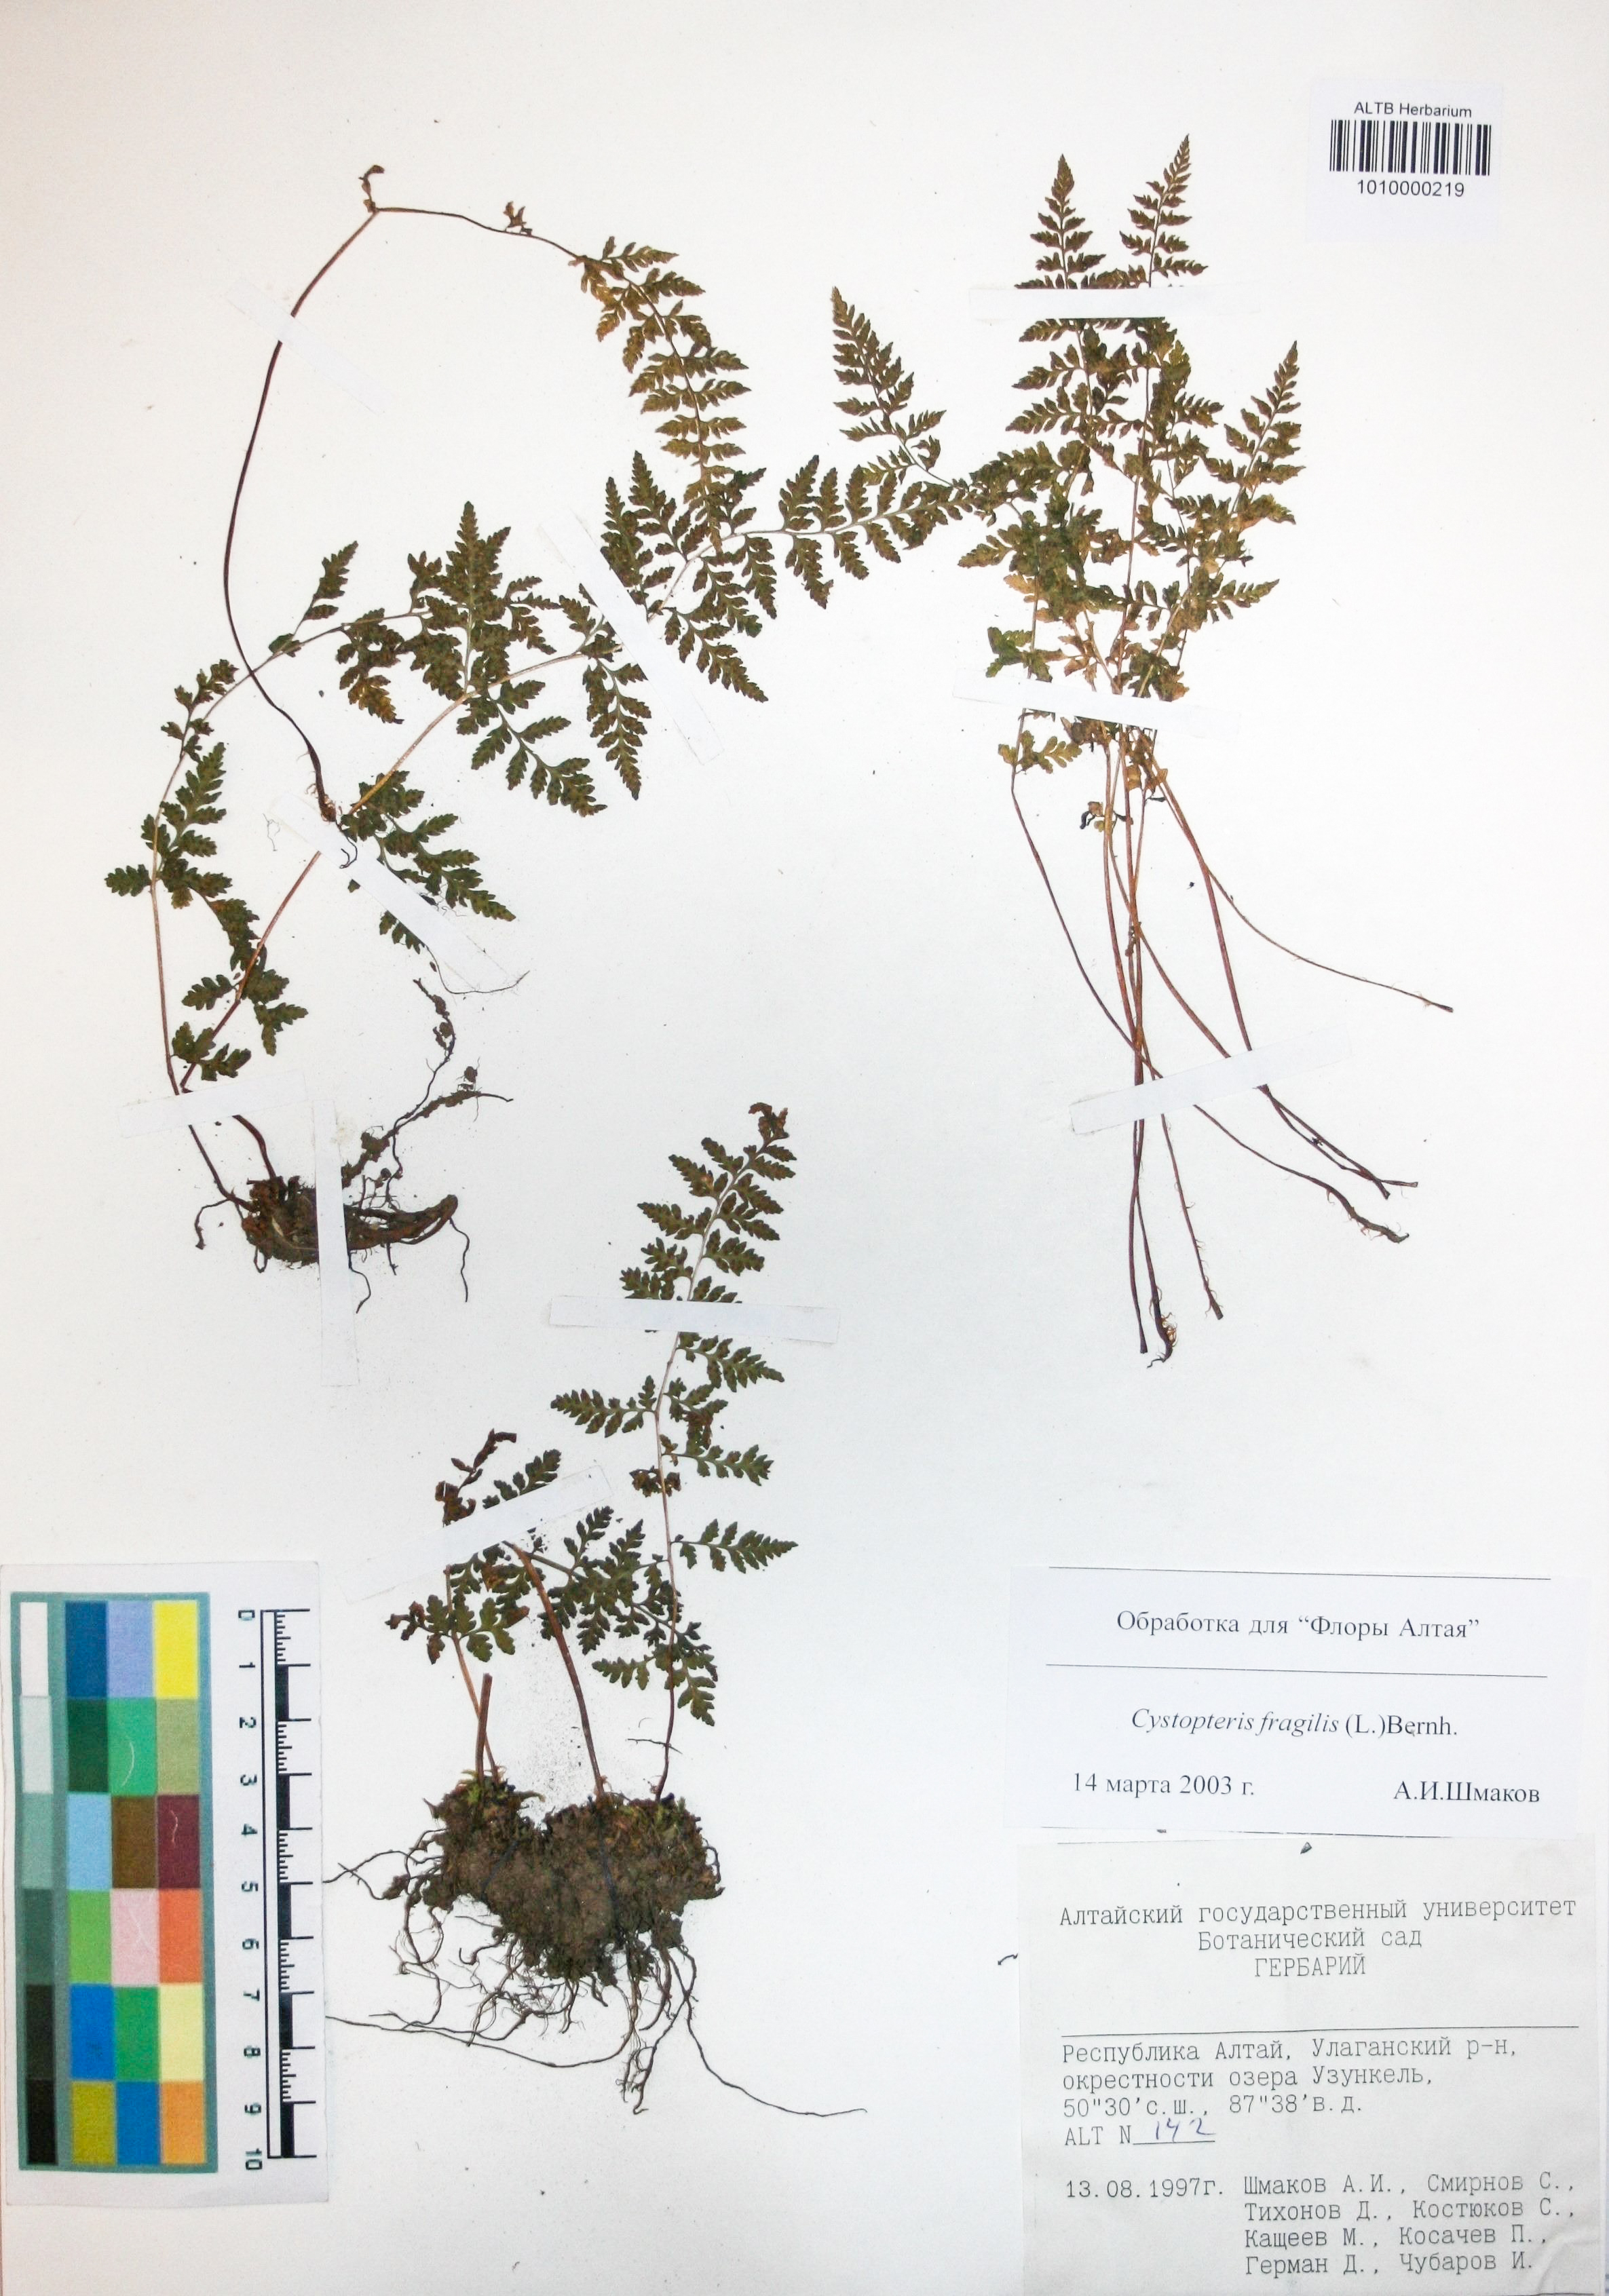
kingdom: Plantae
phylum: Tracheophyta
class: Polypodiopsida
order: Polypodiales
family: Cystopteridaceae
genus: Cystopteris
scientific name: Cystopteris fragilis
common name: Brittle bladder fern
